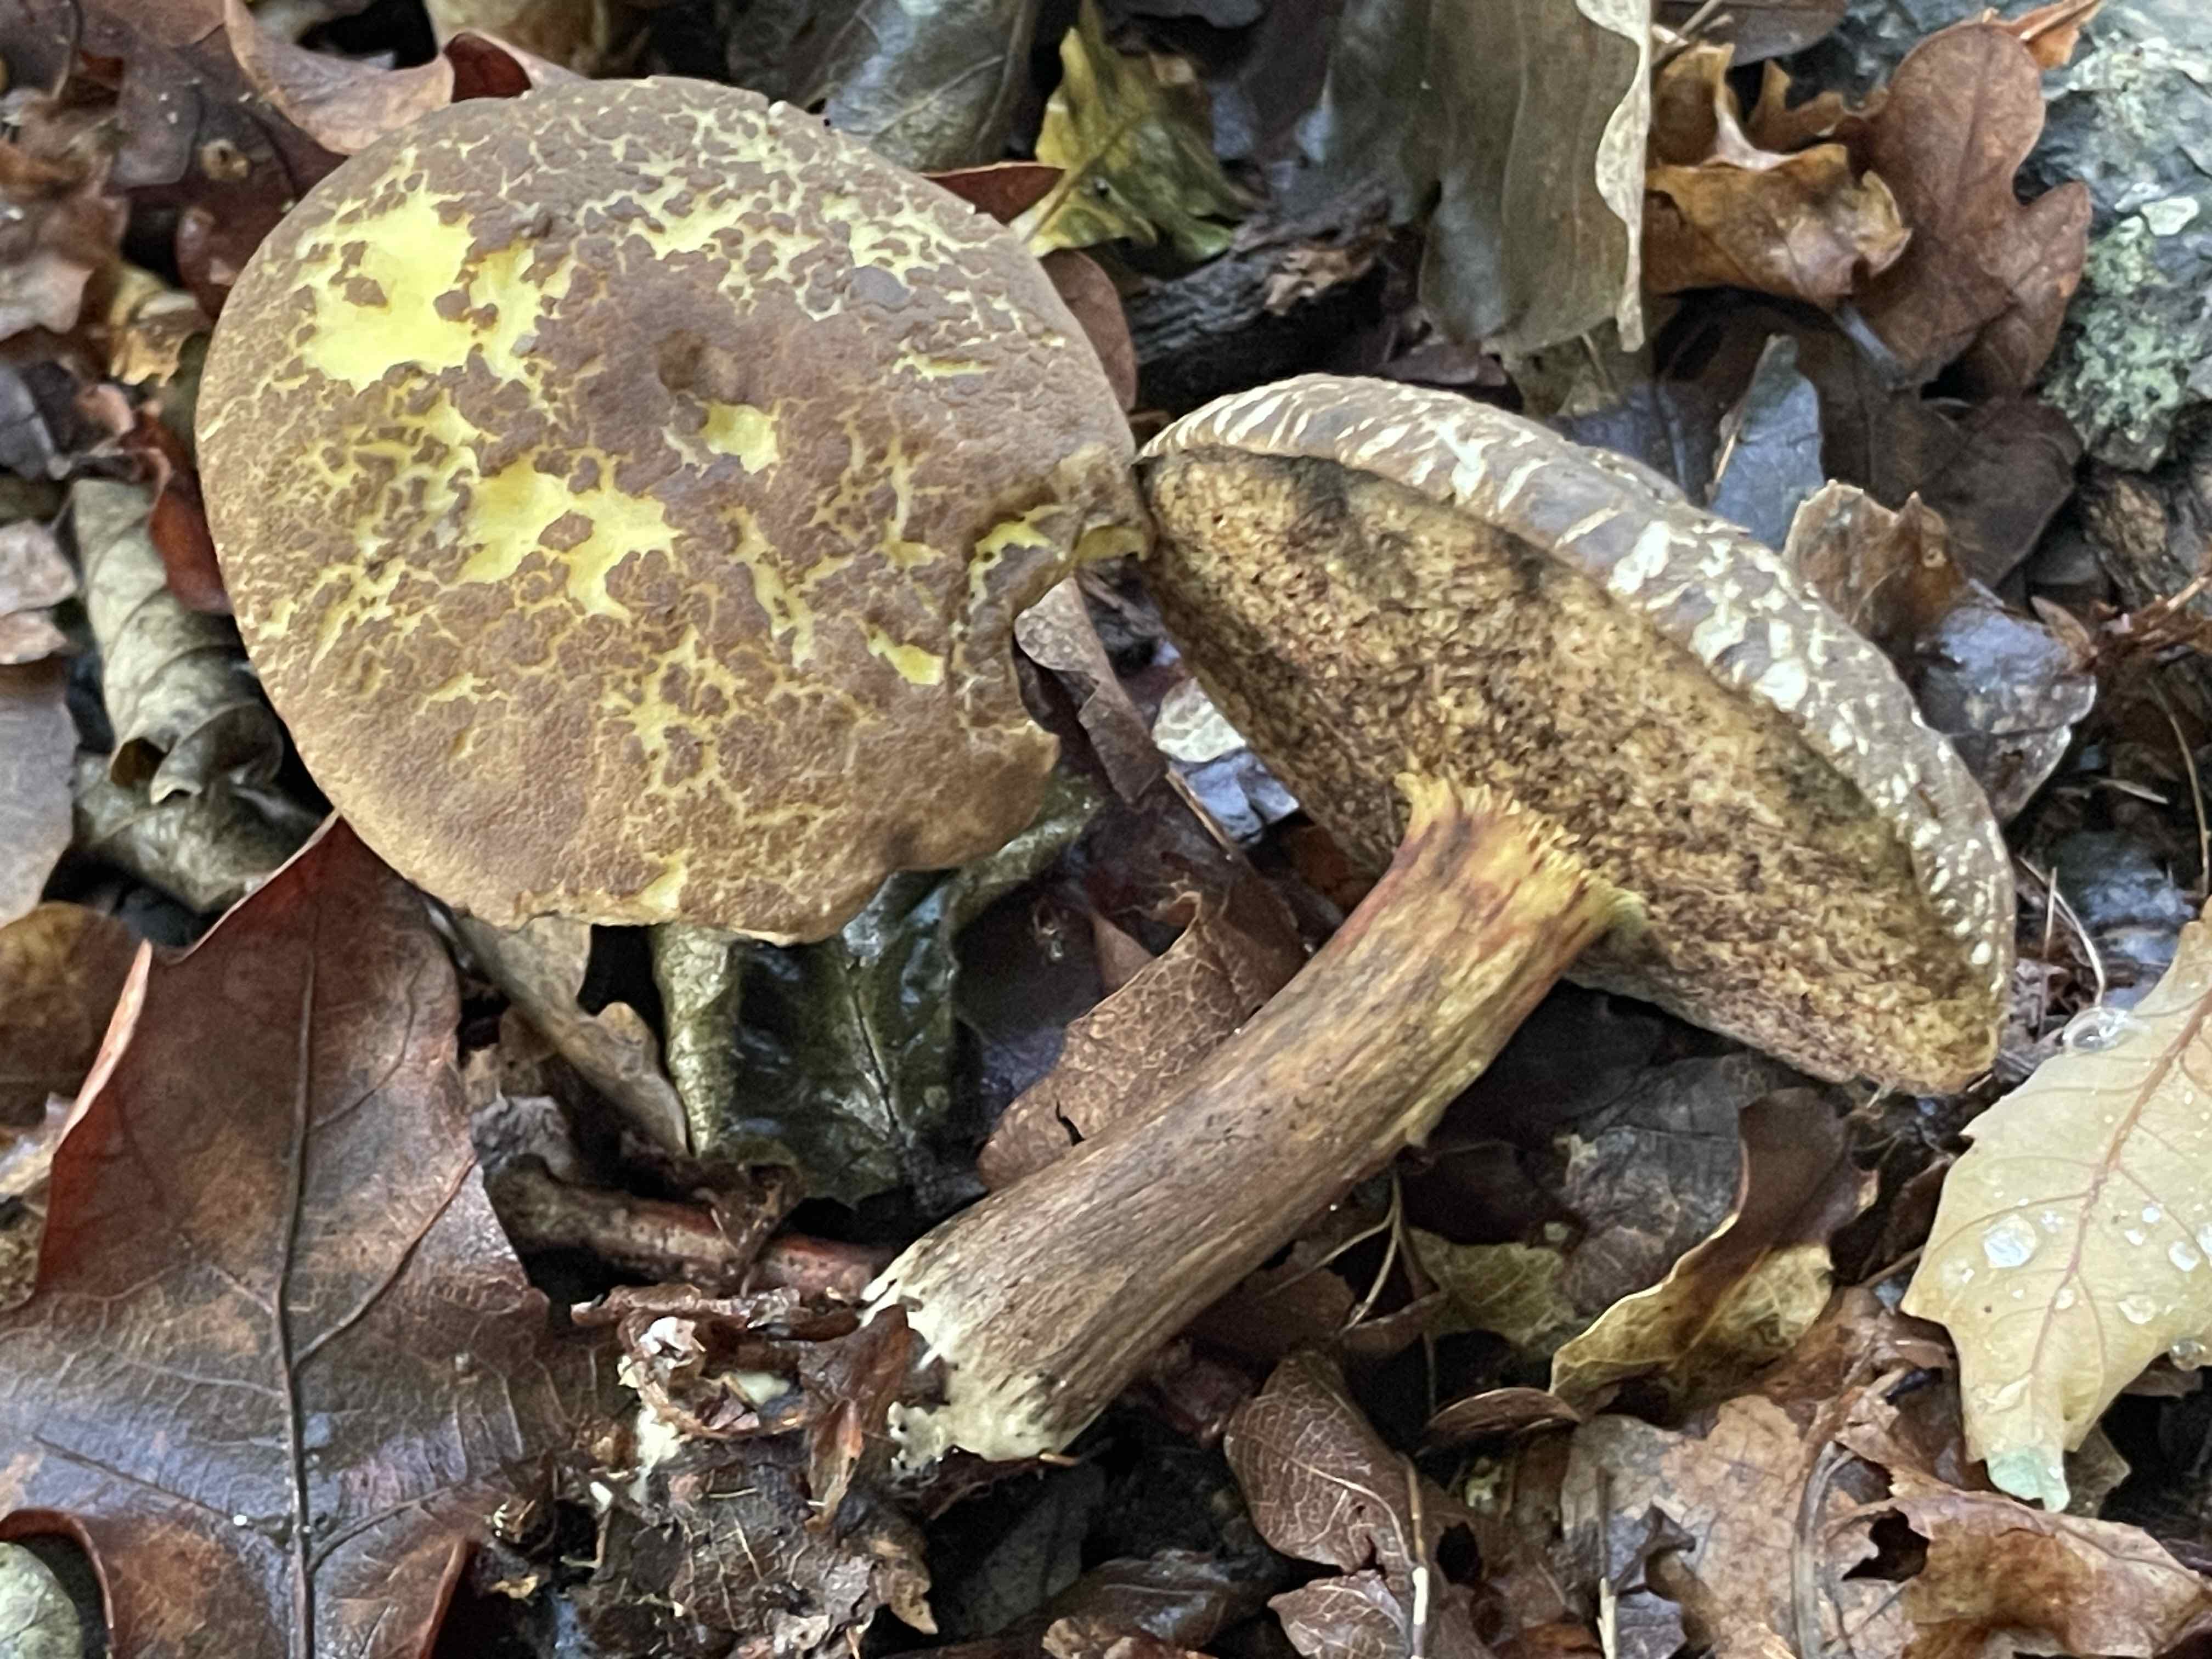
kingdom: Fungi
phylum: Basidiomycota
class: Agaricomycetes
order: Boletales
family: Boletaceae
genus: Xerocomellus
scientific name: Xerocomellus porosporus
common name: hvidsprukken rørhat
